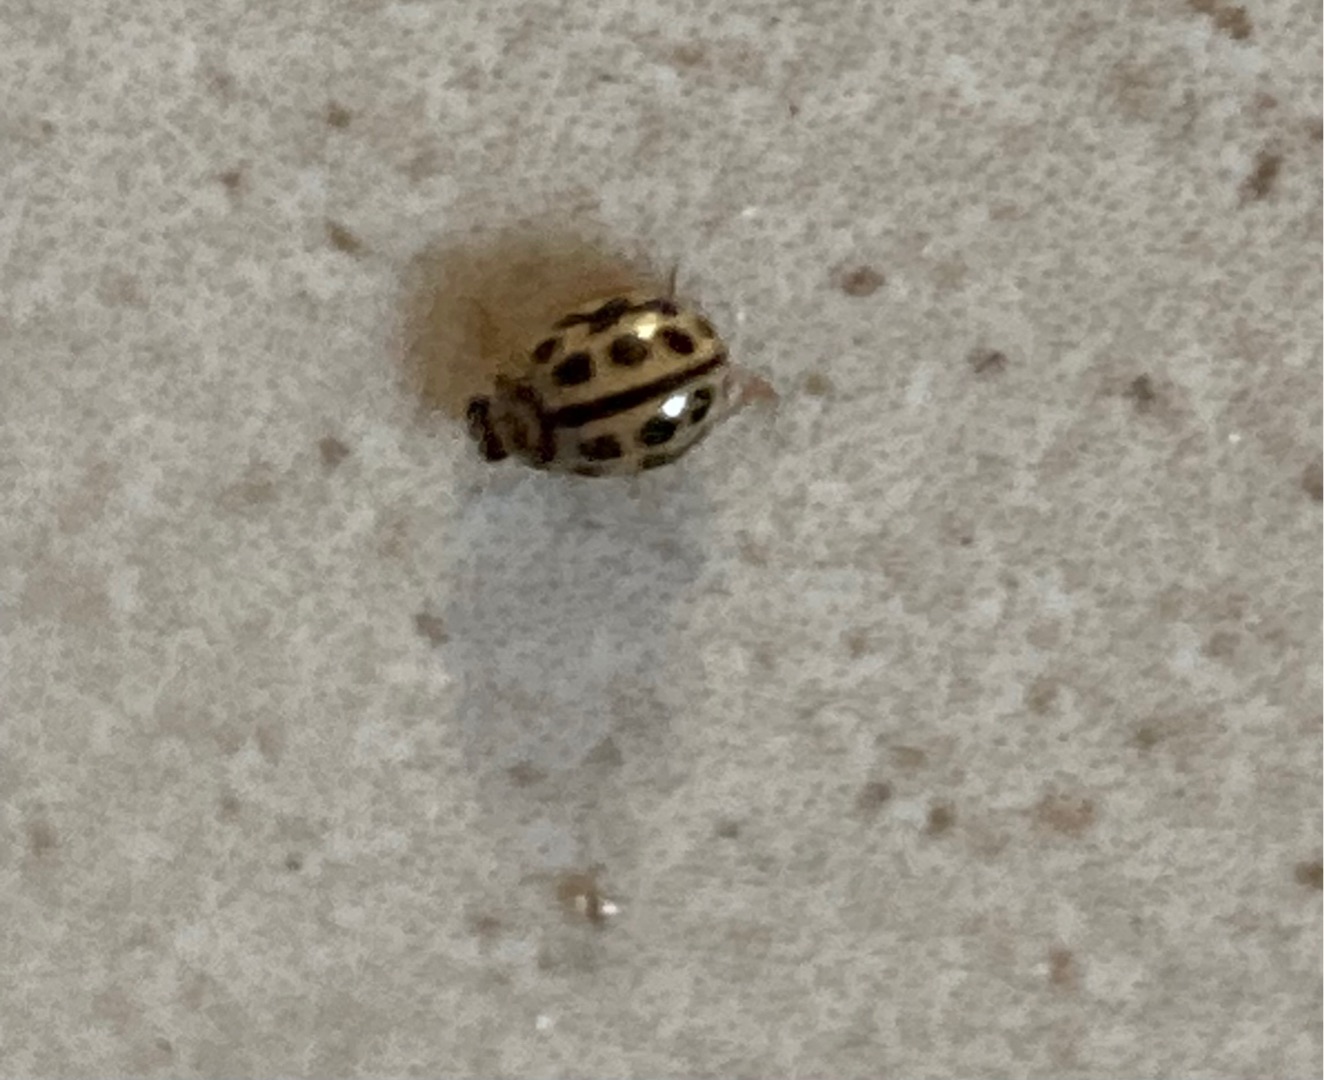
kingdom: Animalia
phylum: Arthropoda
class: Insecta
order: Coleoptera
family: Coccinellidae
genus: Tytthaspis
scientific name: Tytthaspis sedecimpunctata
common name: Sekstenprikket mariehøne
